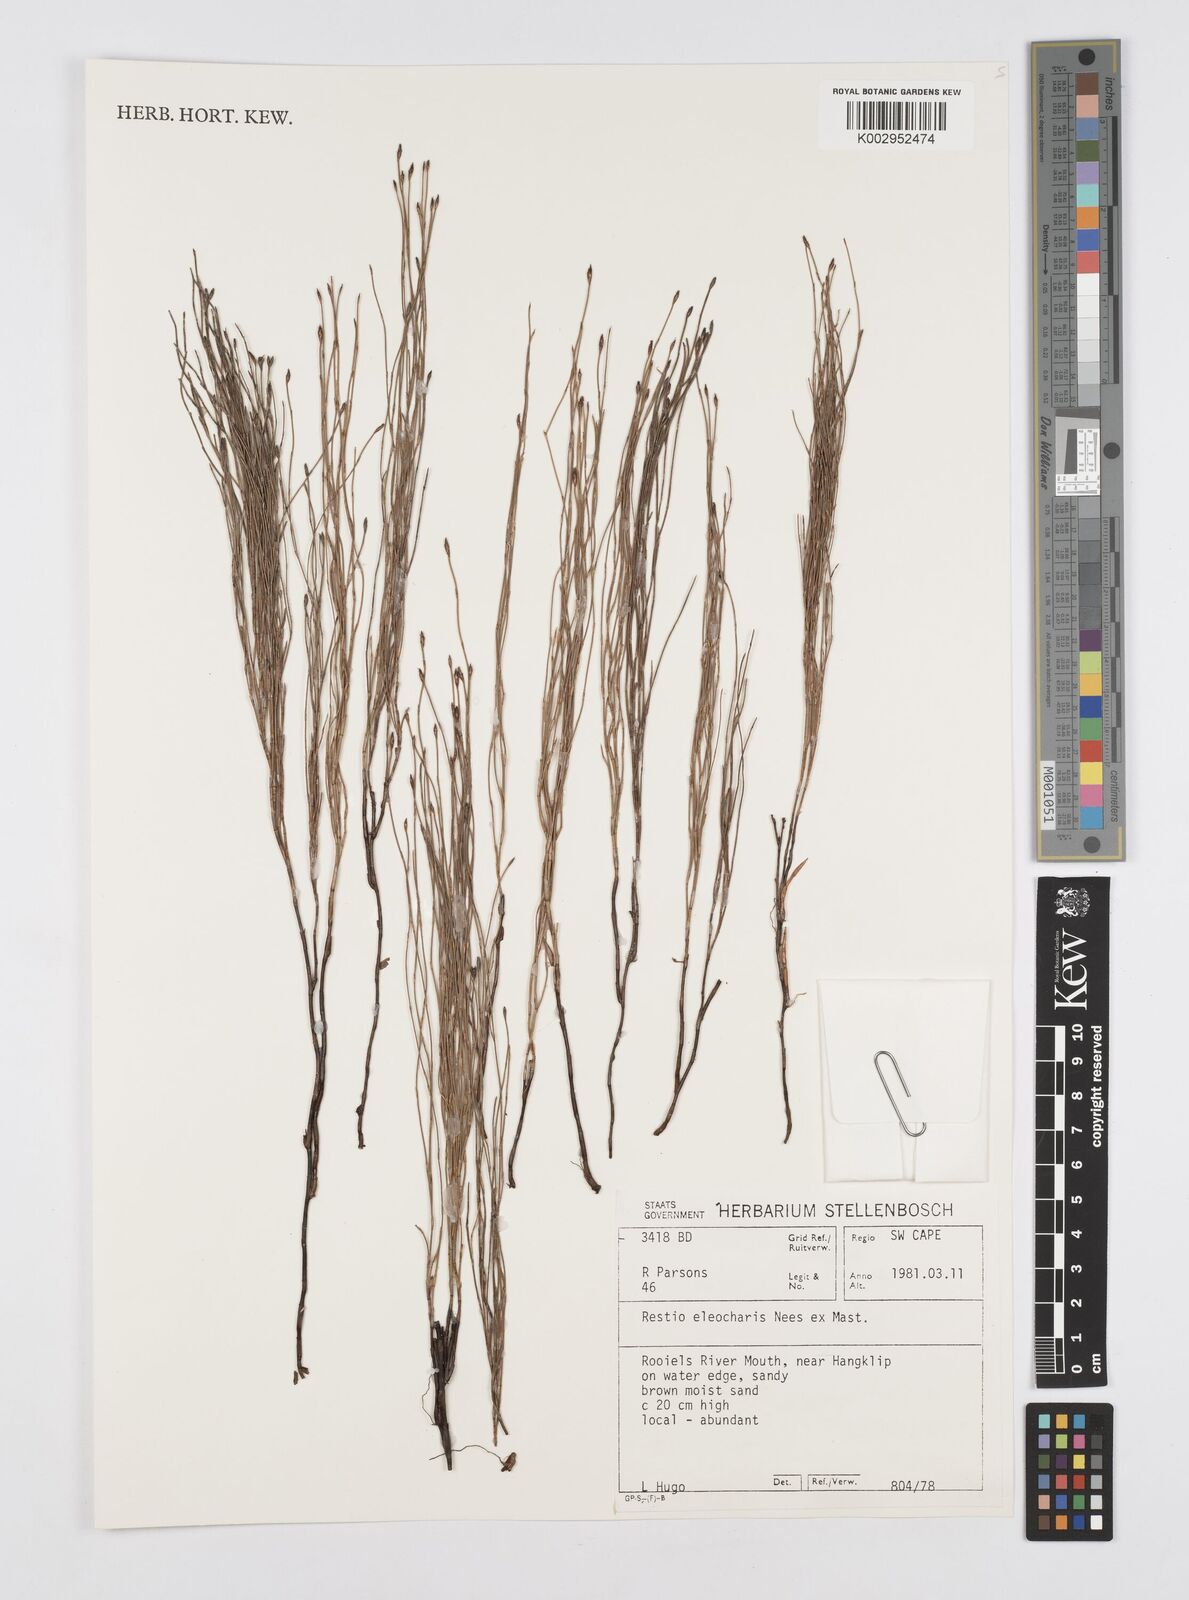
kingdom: Plantae
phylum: Tracheophyta
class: Liliopsida
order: Poales
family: Restionaceae
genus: Restio
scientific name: Restio eleocharis
